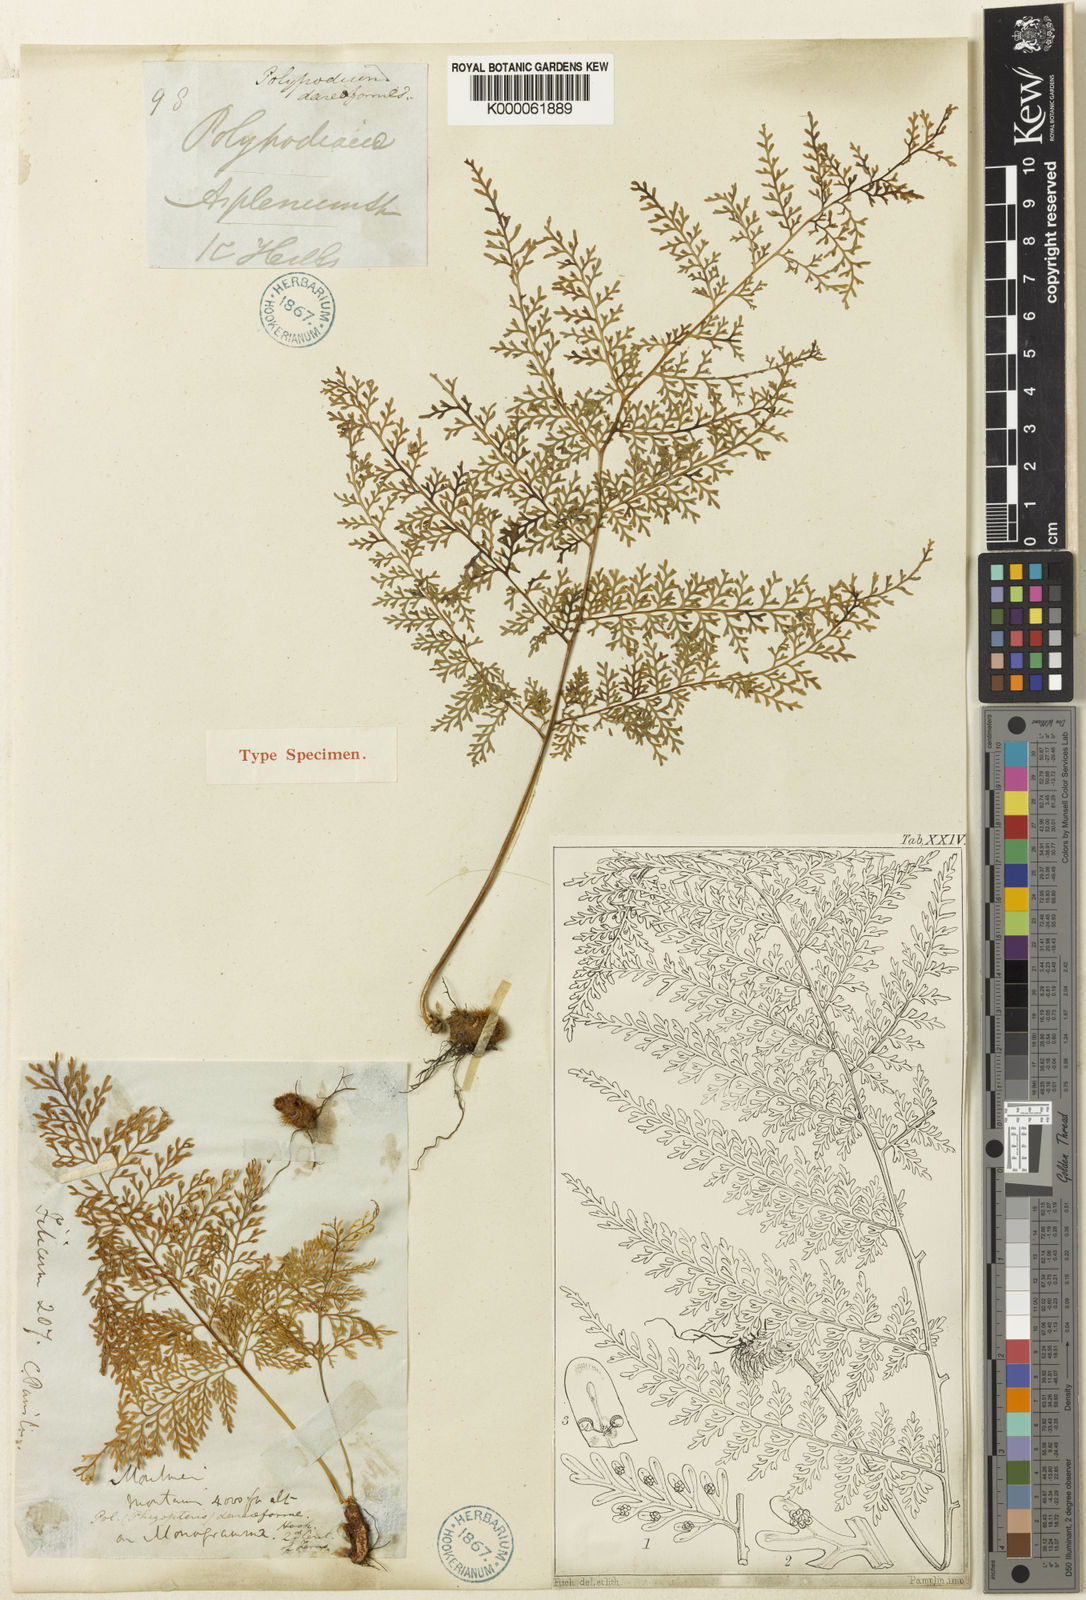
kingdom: Plantae
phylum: Tracheophyta
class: Polypodiopsida
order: Polypodiales
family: Polypodiaceae
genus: Selliguea
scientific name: Selliguea dareiformis
